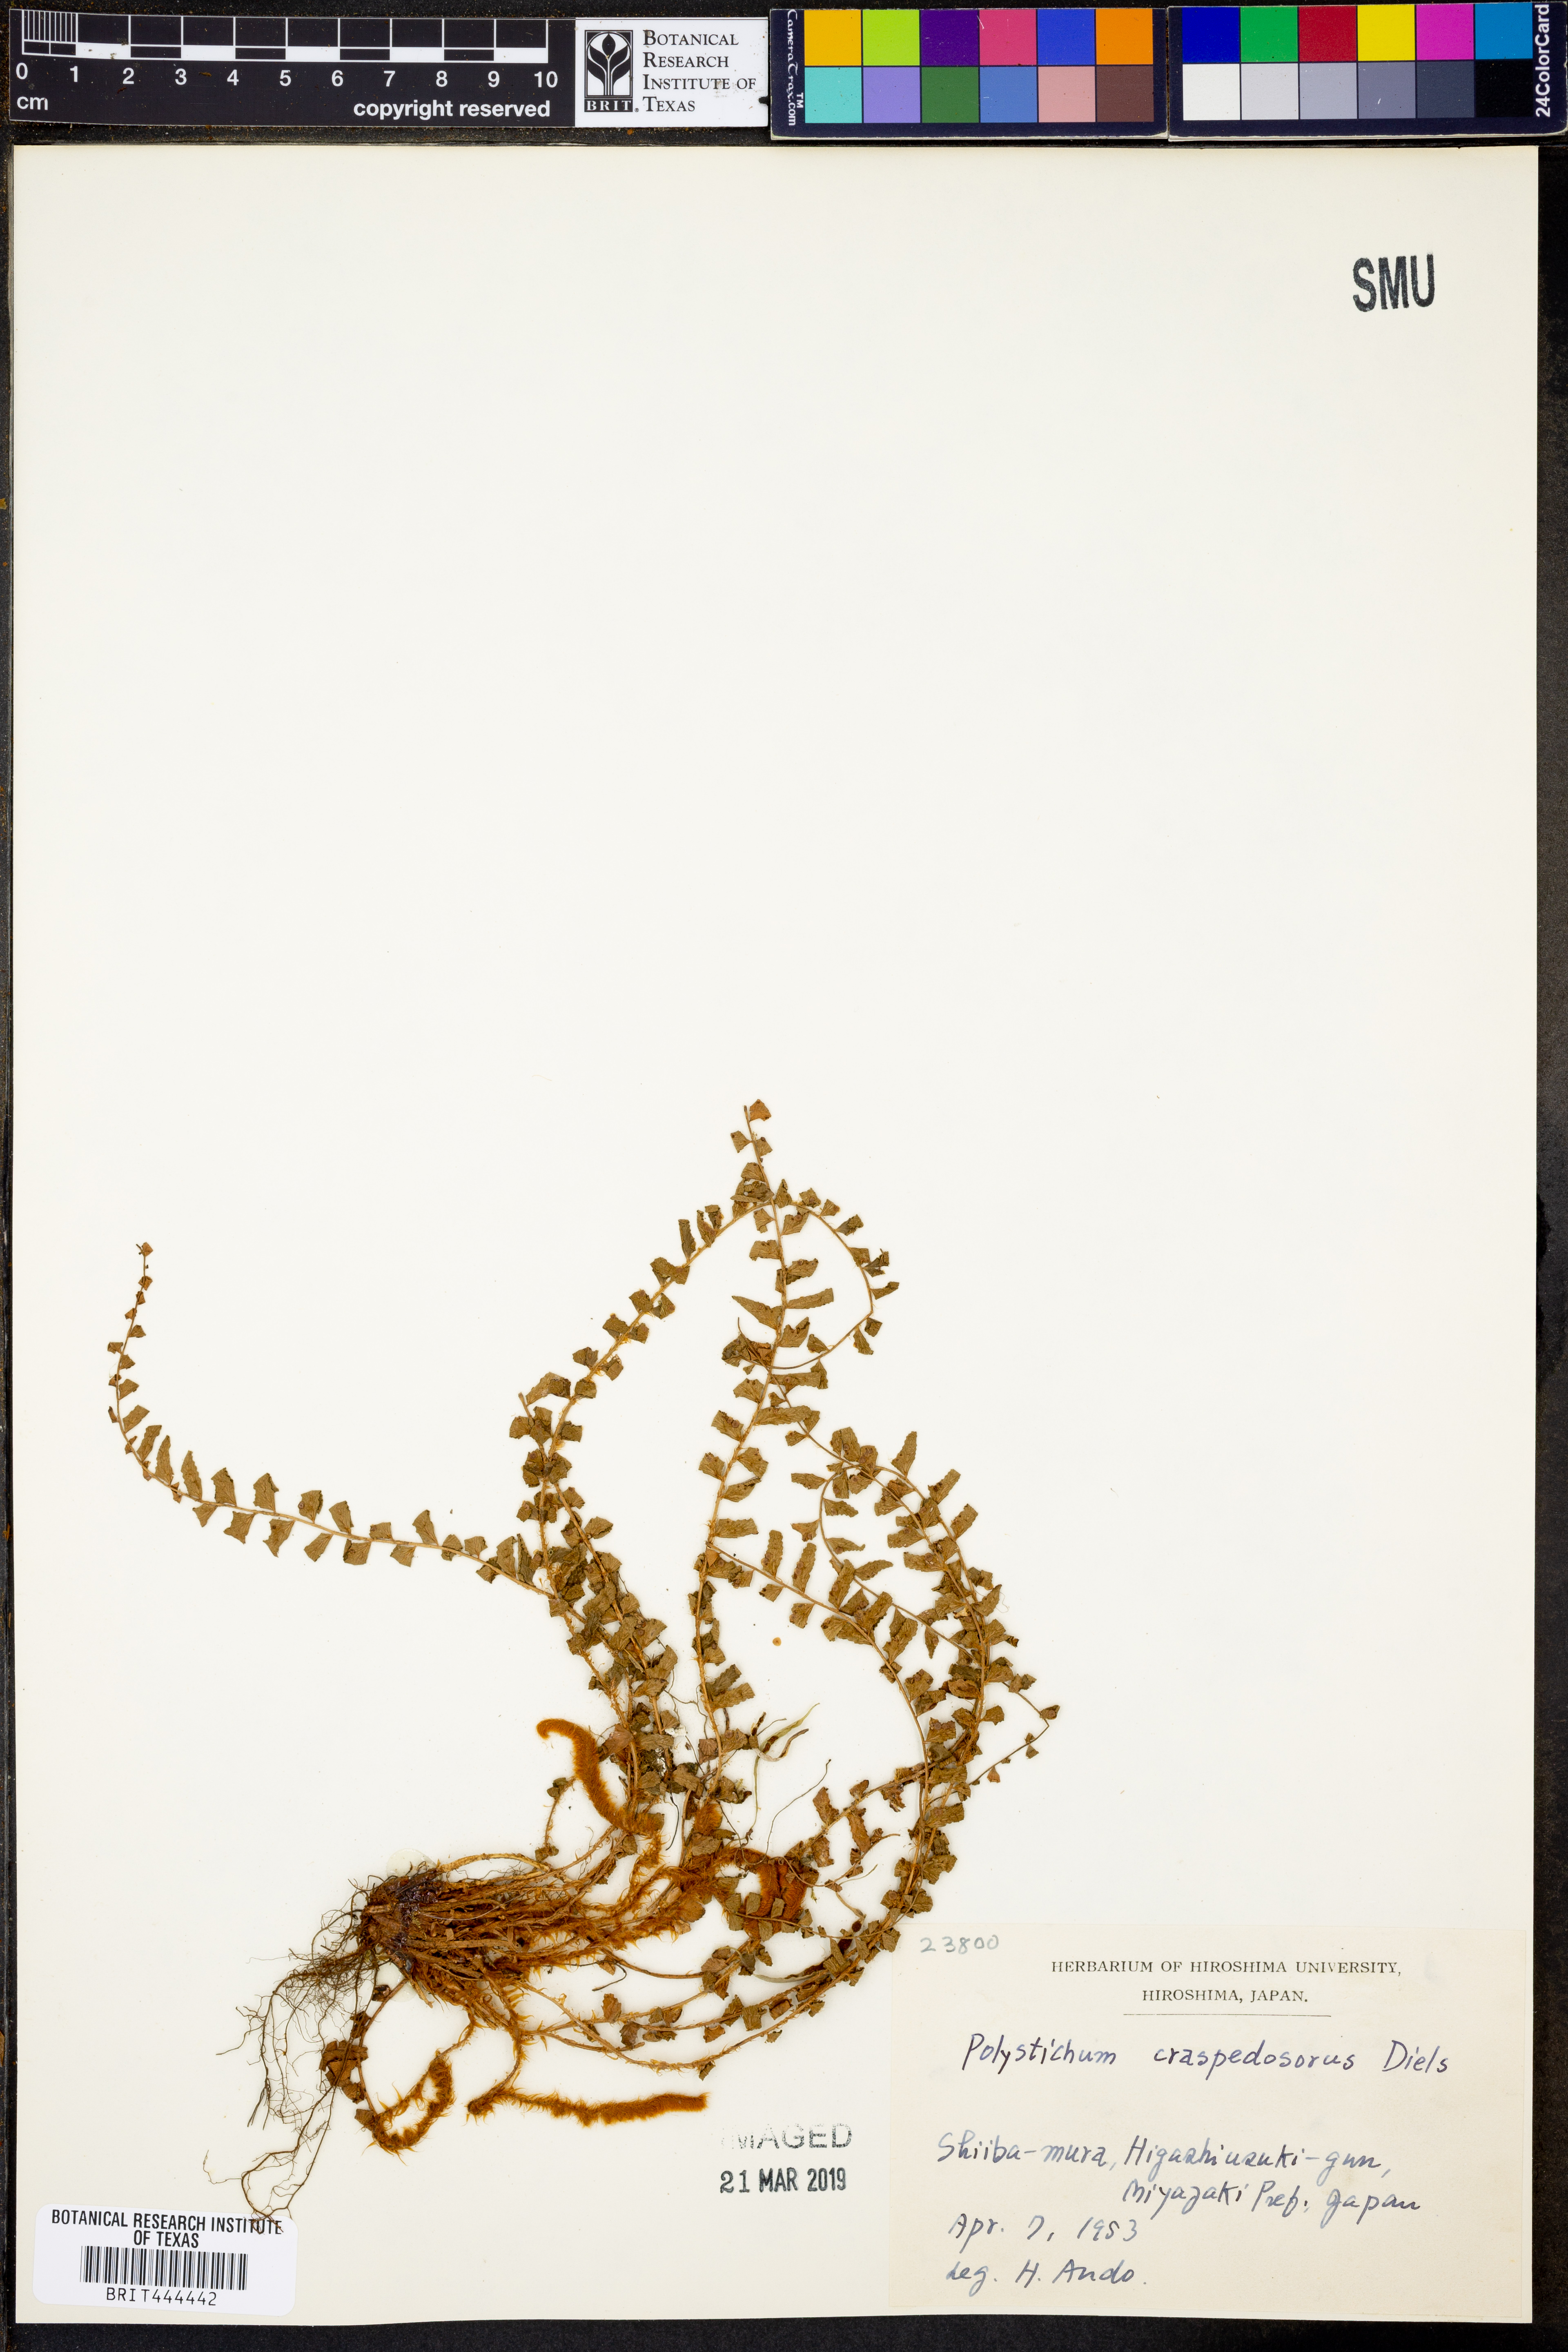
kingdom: Plantae
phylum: Tracheophyta
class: Polypodiopsida
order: Polypodiales
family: Dryopteridaceae
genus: Polystichum
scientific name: Polystichum craspedosorum
